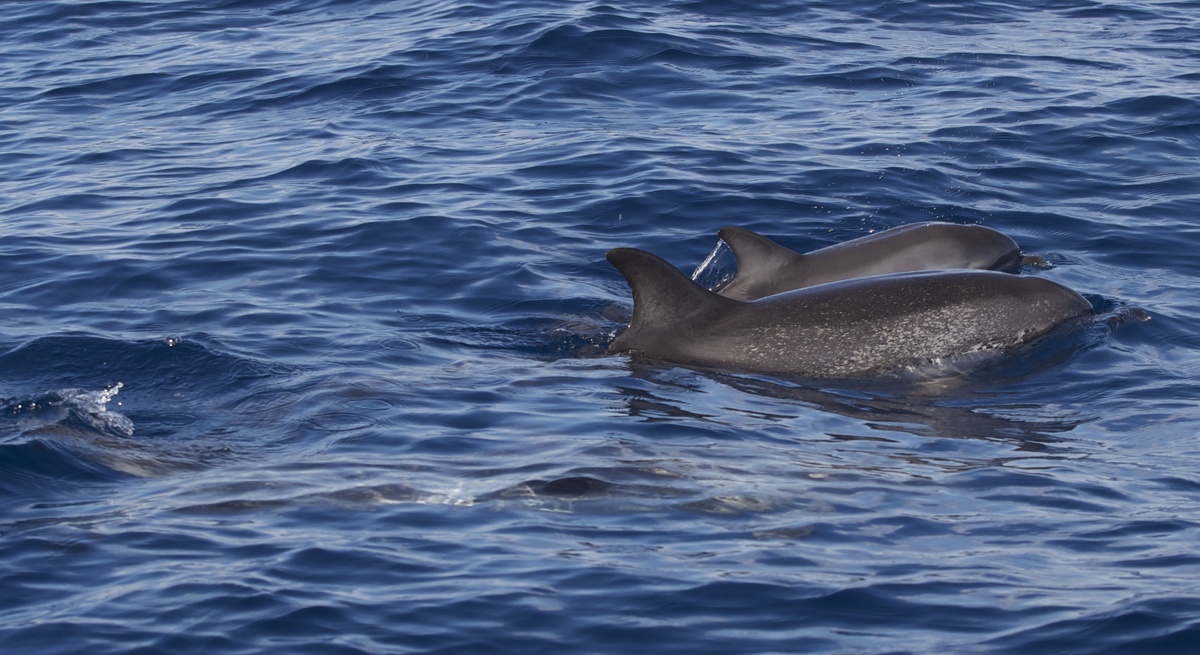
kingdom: Animalia
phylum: Chordata
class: Mammalia
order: Cetacea
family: Delphinidae
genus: Stenella
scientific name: Stenella frontalis
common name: Atlantic spotted dolphin
